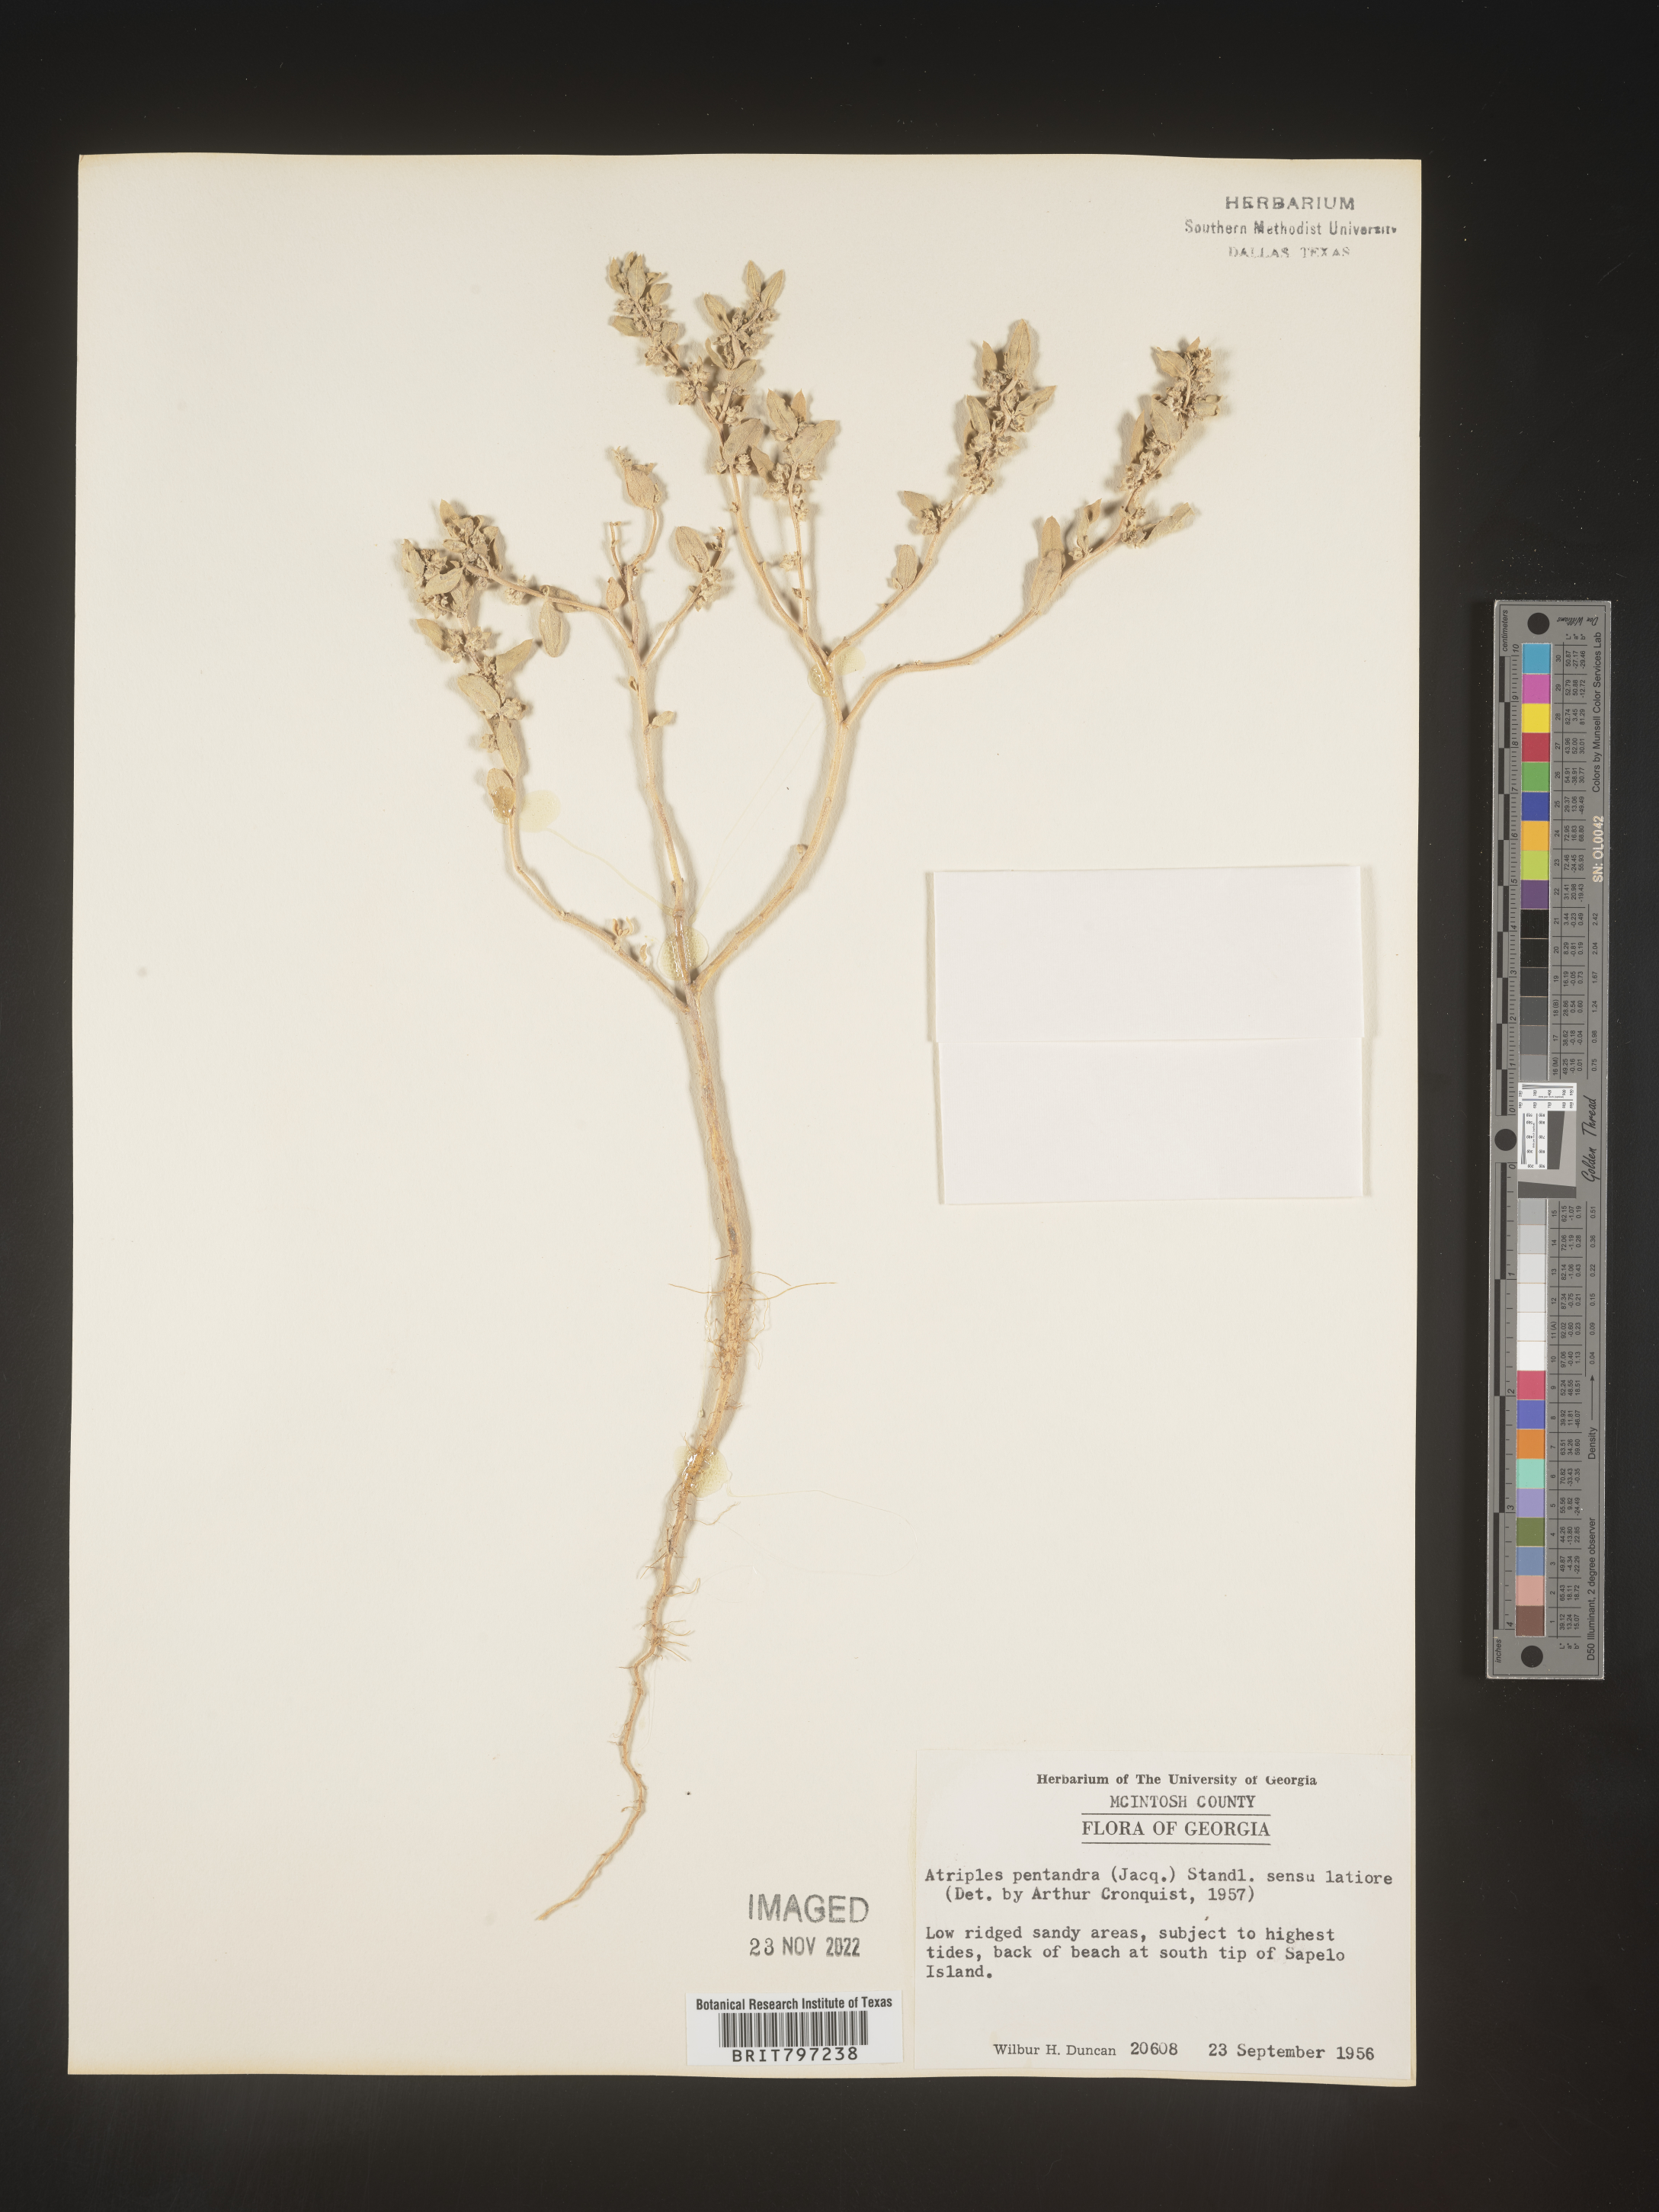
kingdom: Plantae
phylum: Tracheophyta
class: Magnoliopsida
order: Caryophyllales
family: Amaranthaceae
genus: Atriplex
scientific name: Atriplex
